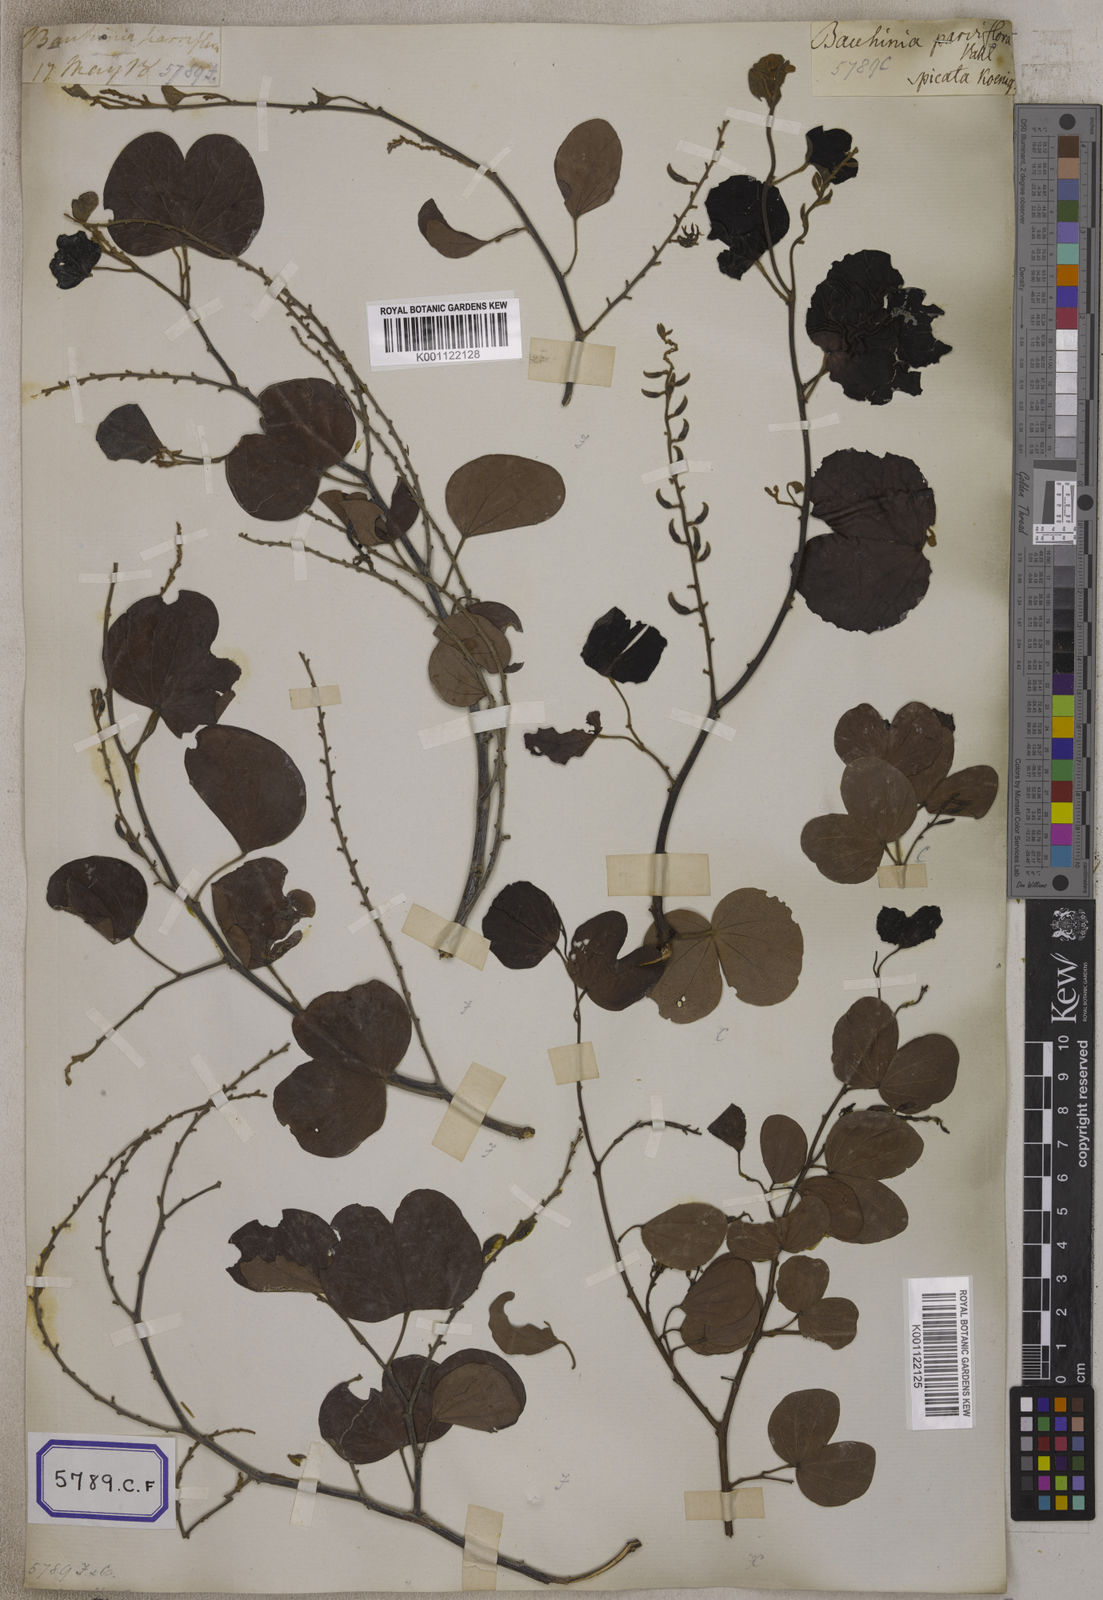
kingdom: Plantae
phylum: Tracheophyta
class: Magnoliopsida
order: Fabales
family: Fabaceae
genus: Bauhinia
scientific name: Bauhinia
